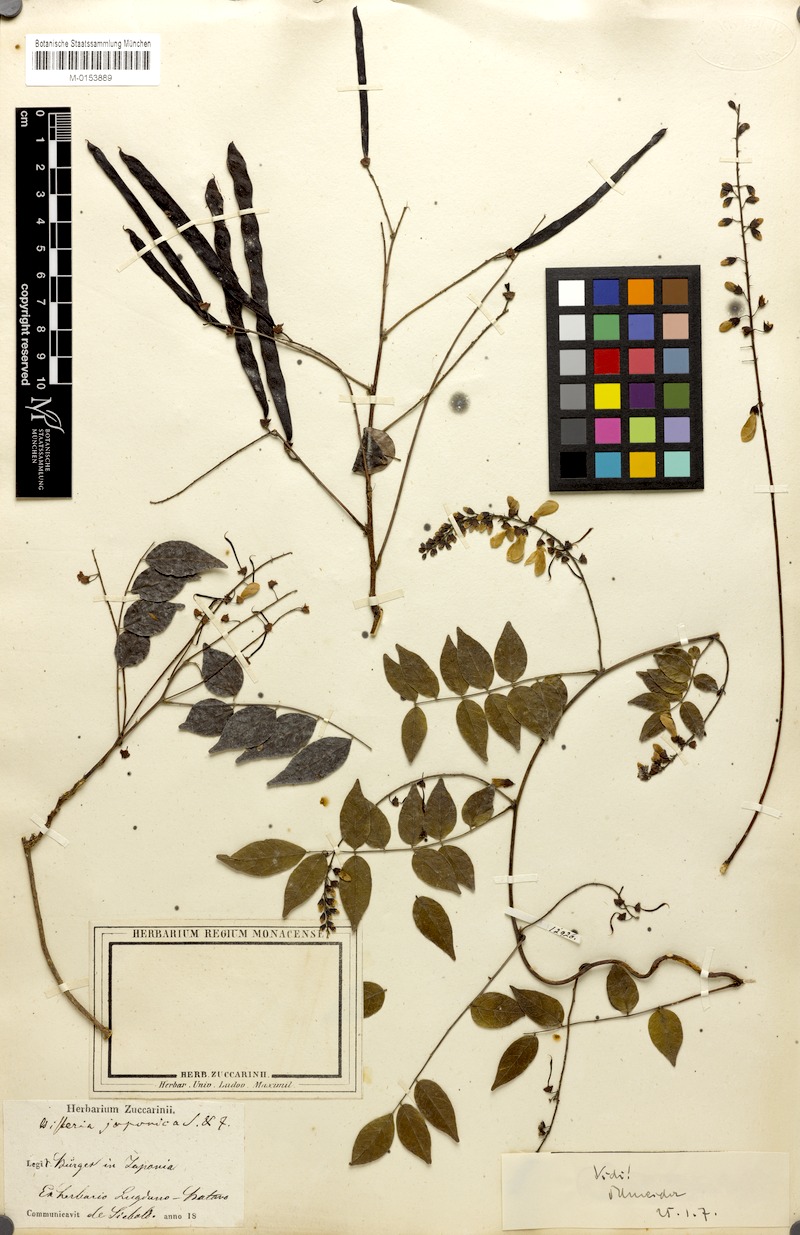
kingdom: Plantae
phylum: Tracheophyta
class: Magnoliopsida
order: Fabales
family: Fabaceae
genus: Wisteriopsis
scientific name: Wisteriopsis japonica
